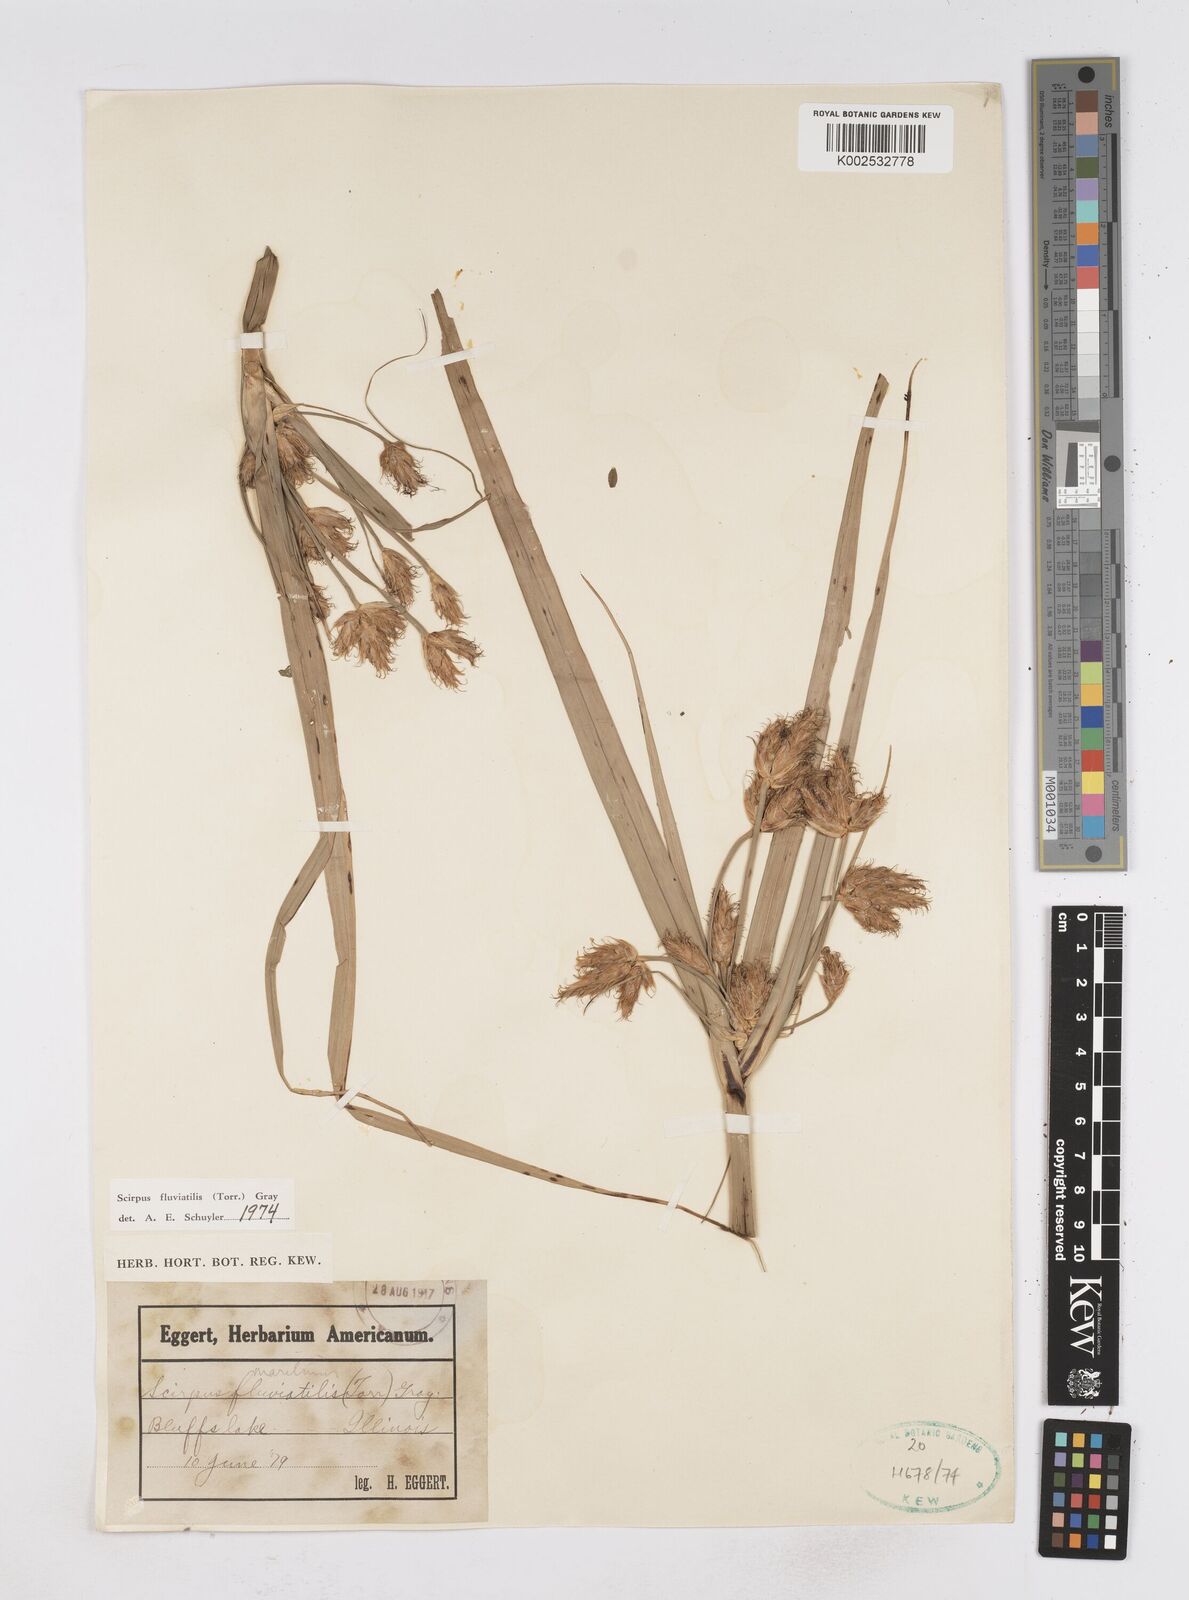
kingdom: Plantae
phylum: Tracheophyta
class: Liliopsida
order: Poales
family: Cyperaceae
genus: Bolboschoenus
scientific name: Bolboschoenus
